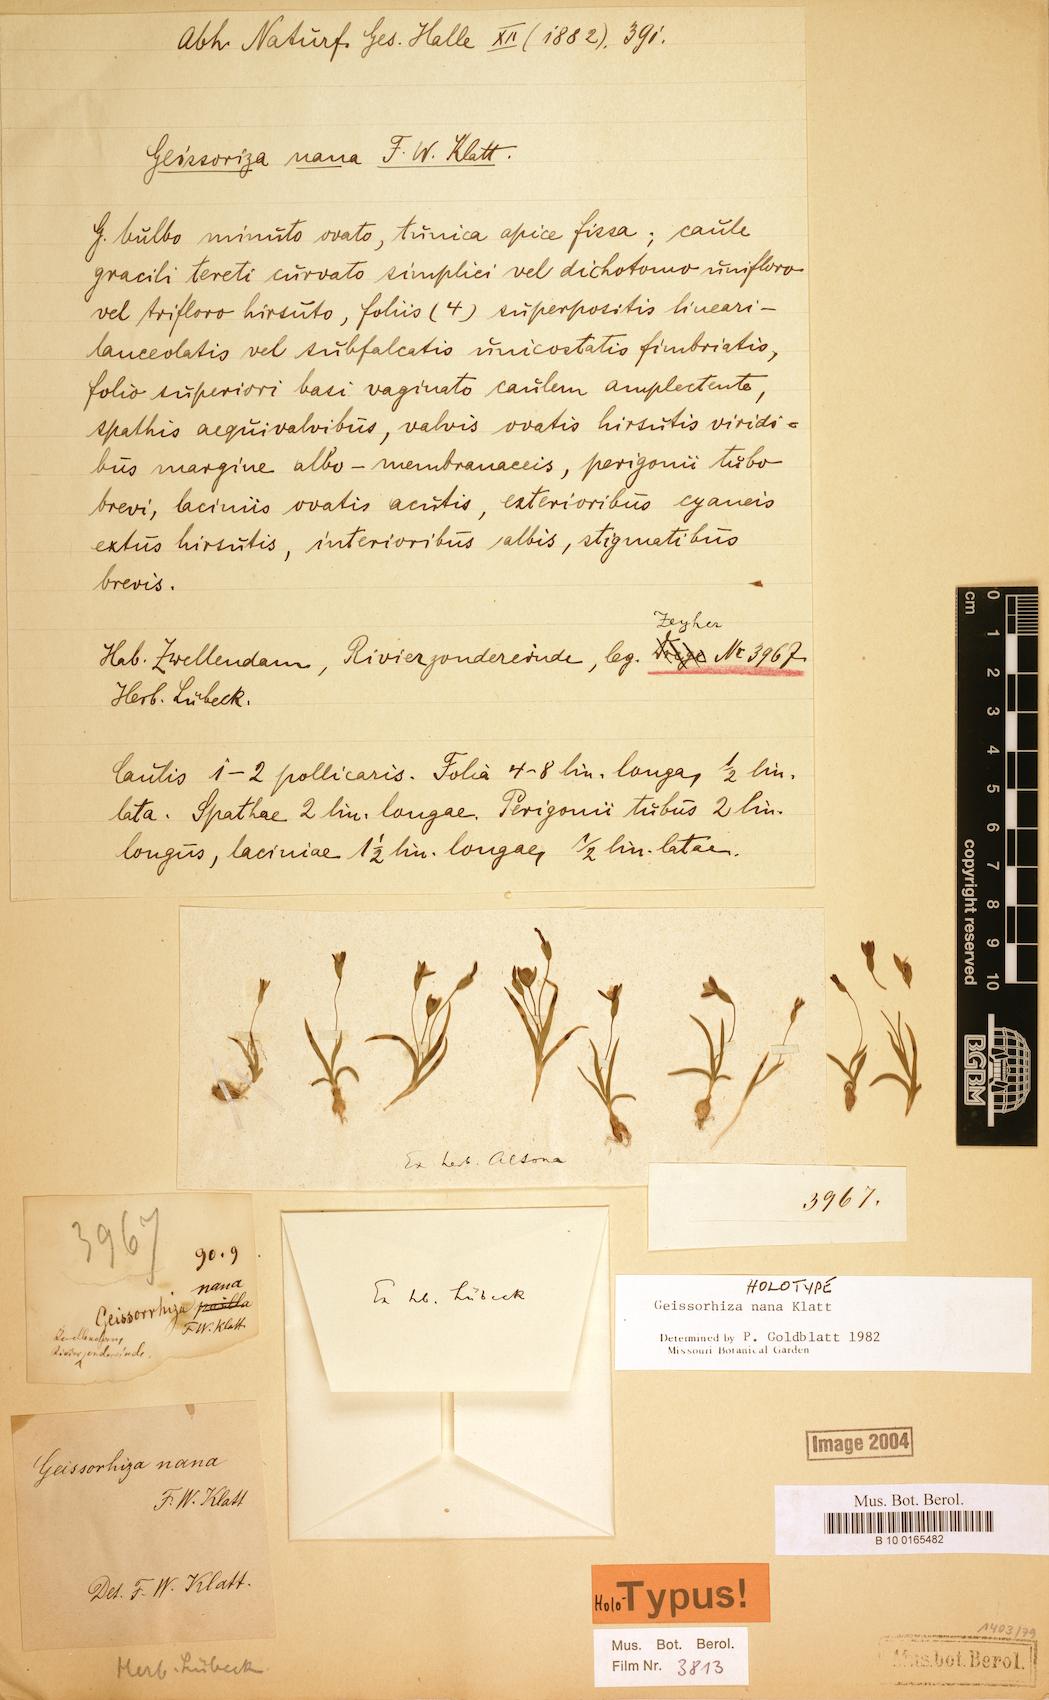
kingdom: Plantae
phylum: Tracheophyta
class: Liliopsida
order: Asparagales
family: Iridaceae
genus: Geissorhiza
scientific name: Geissorhiza nana
